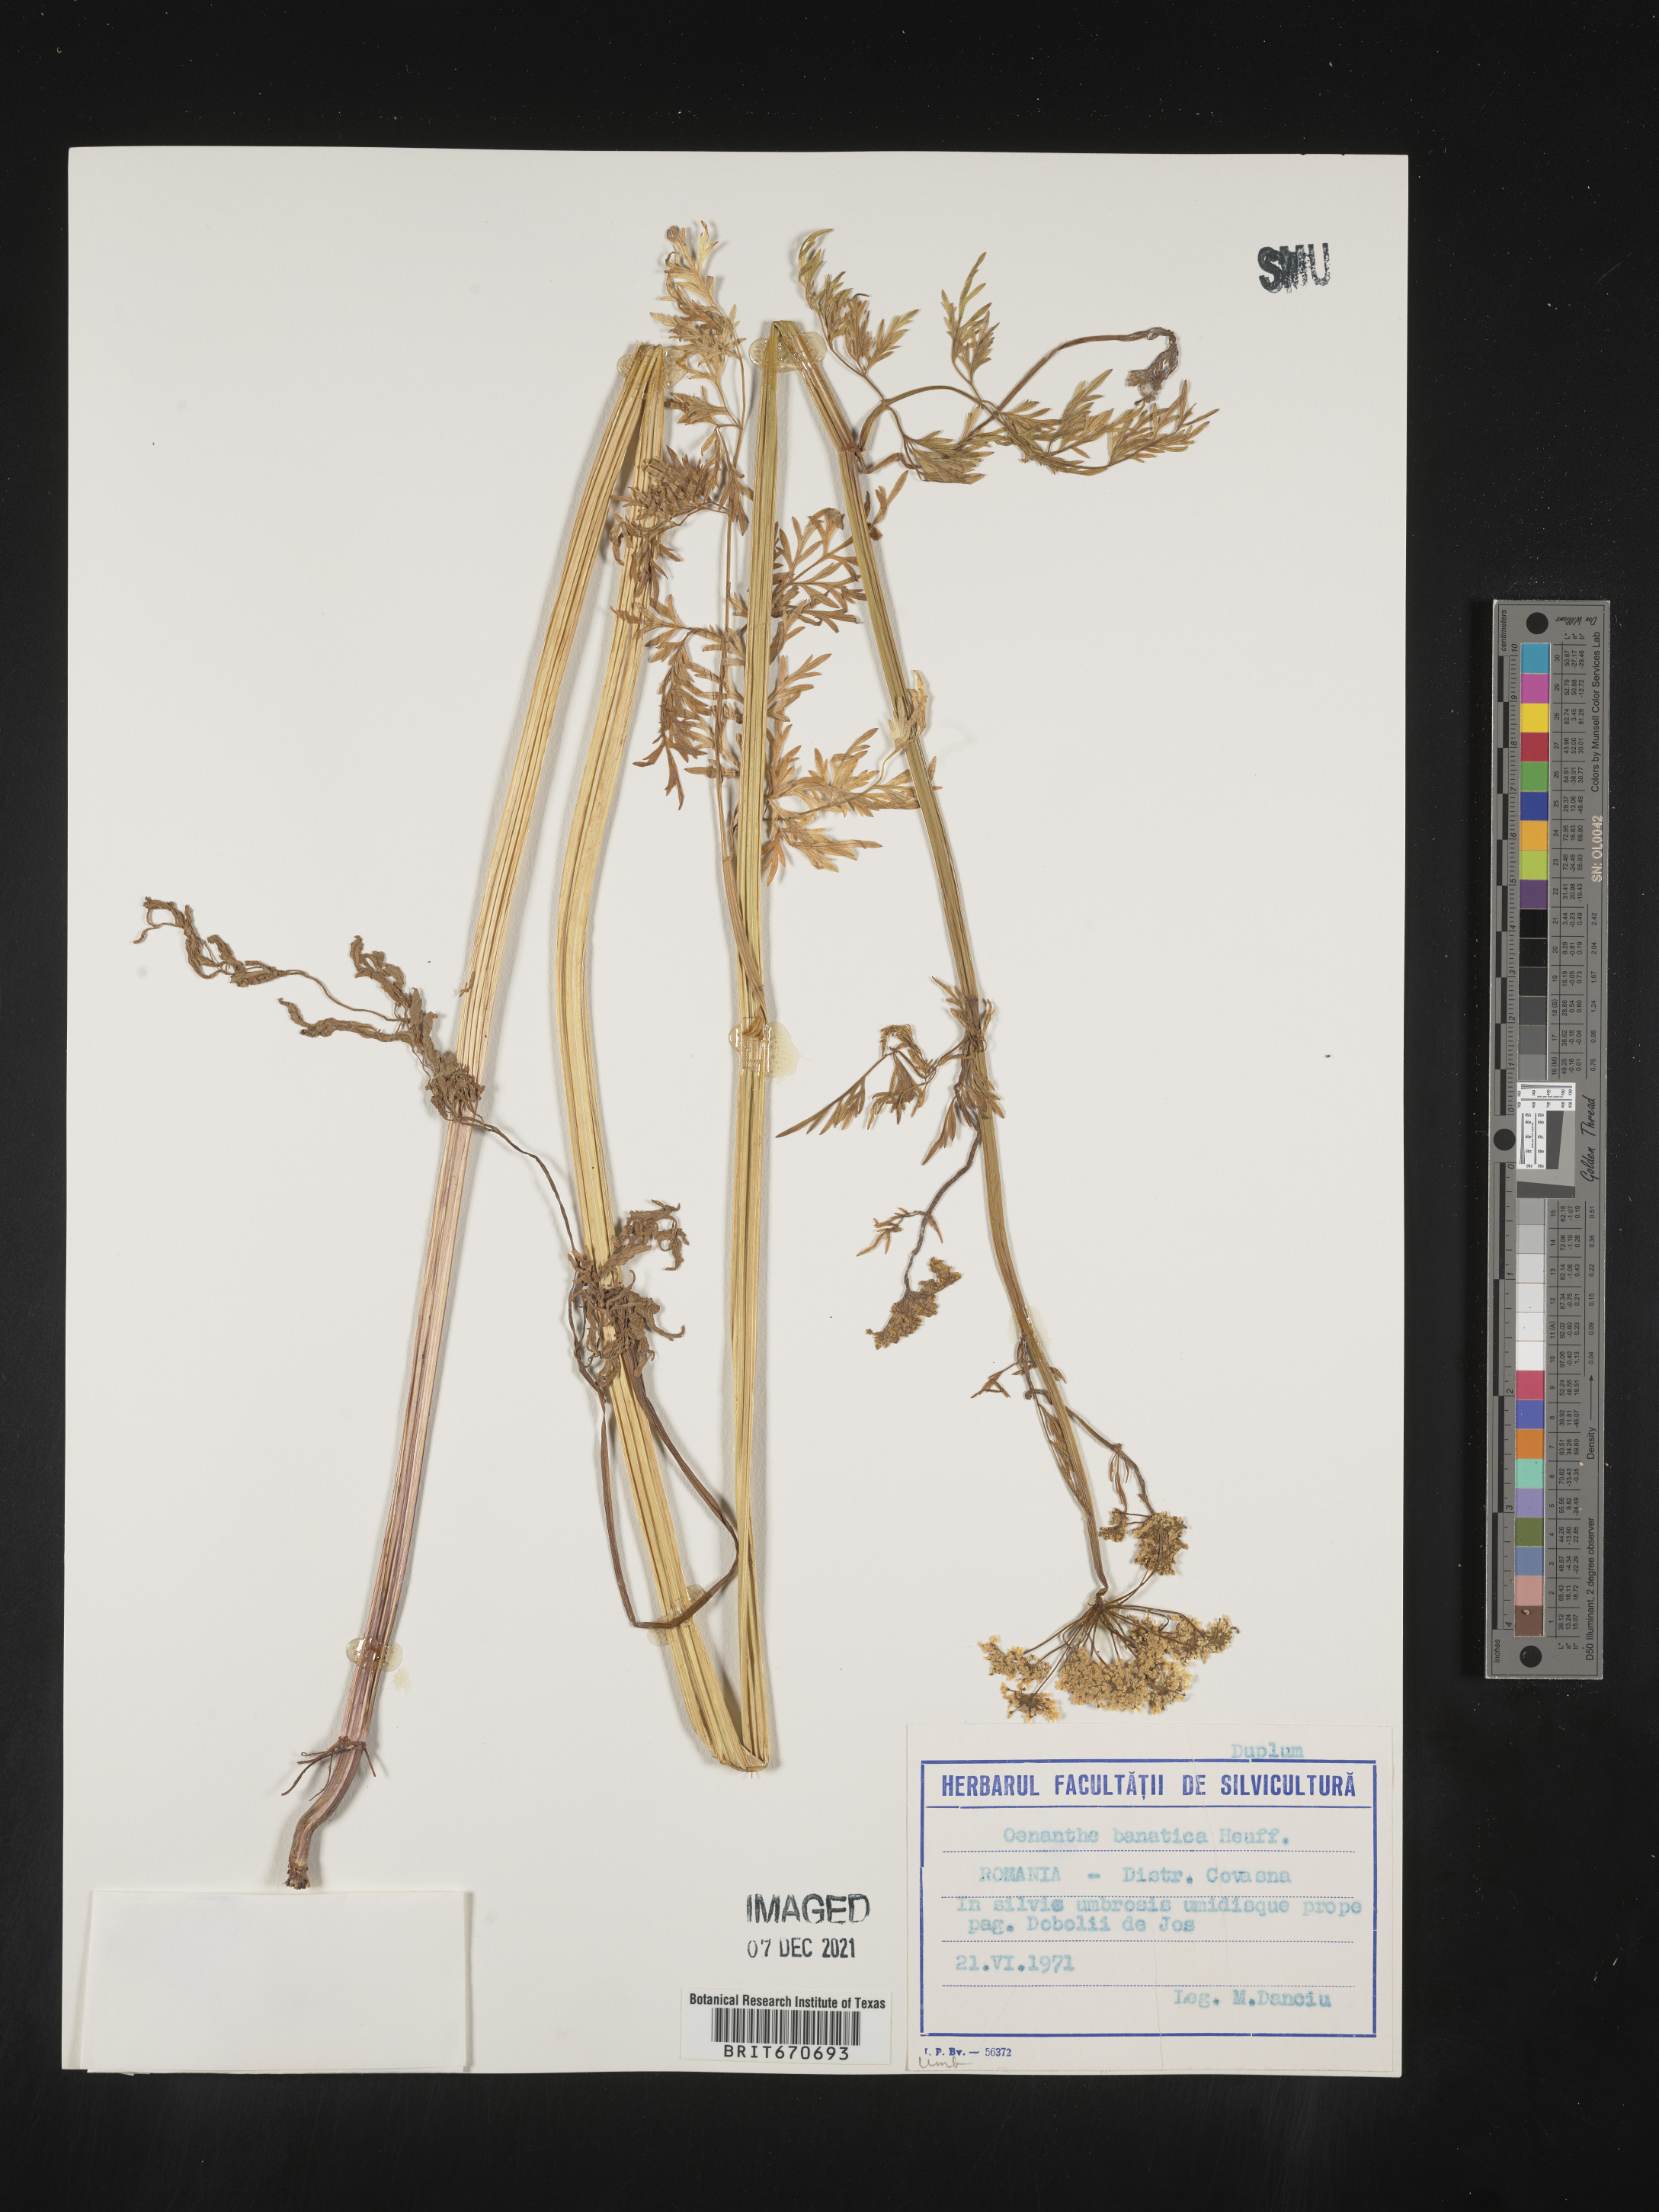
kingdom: Plantae
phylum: Tracheophyta
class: Magnoliopsida
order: Apiales
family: Apiaceae
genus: Oenanthe
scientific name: Oenanthe
